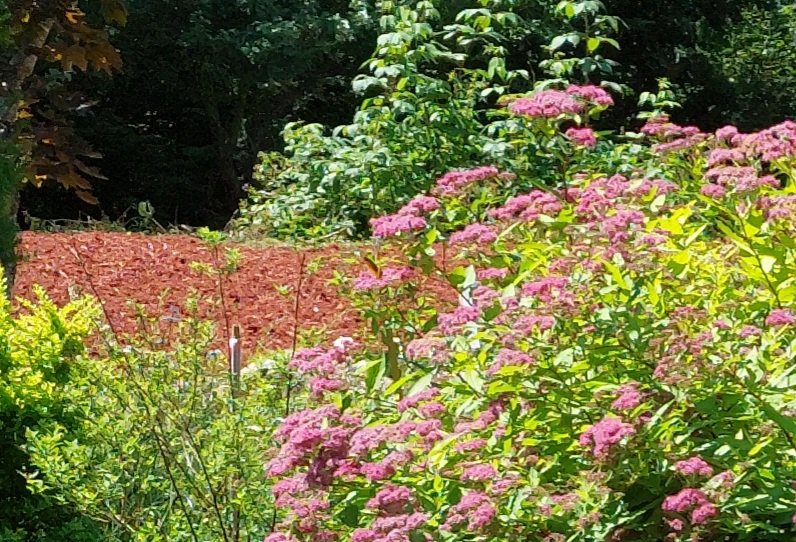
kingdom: Animalia
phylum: Arthropoda
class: Insecta
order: Lepidoptera
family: Nymphalidae
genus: Speyeria
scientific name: Speyeria cybele
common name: Great Spangled Fritillary
